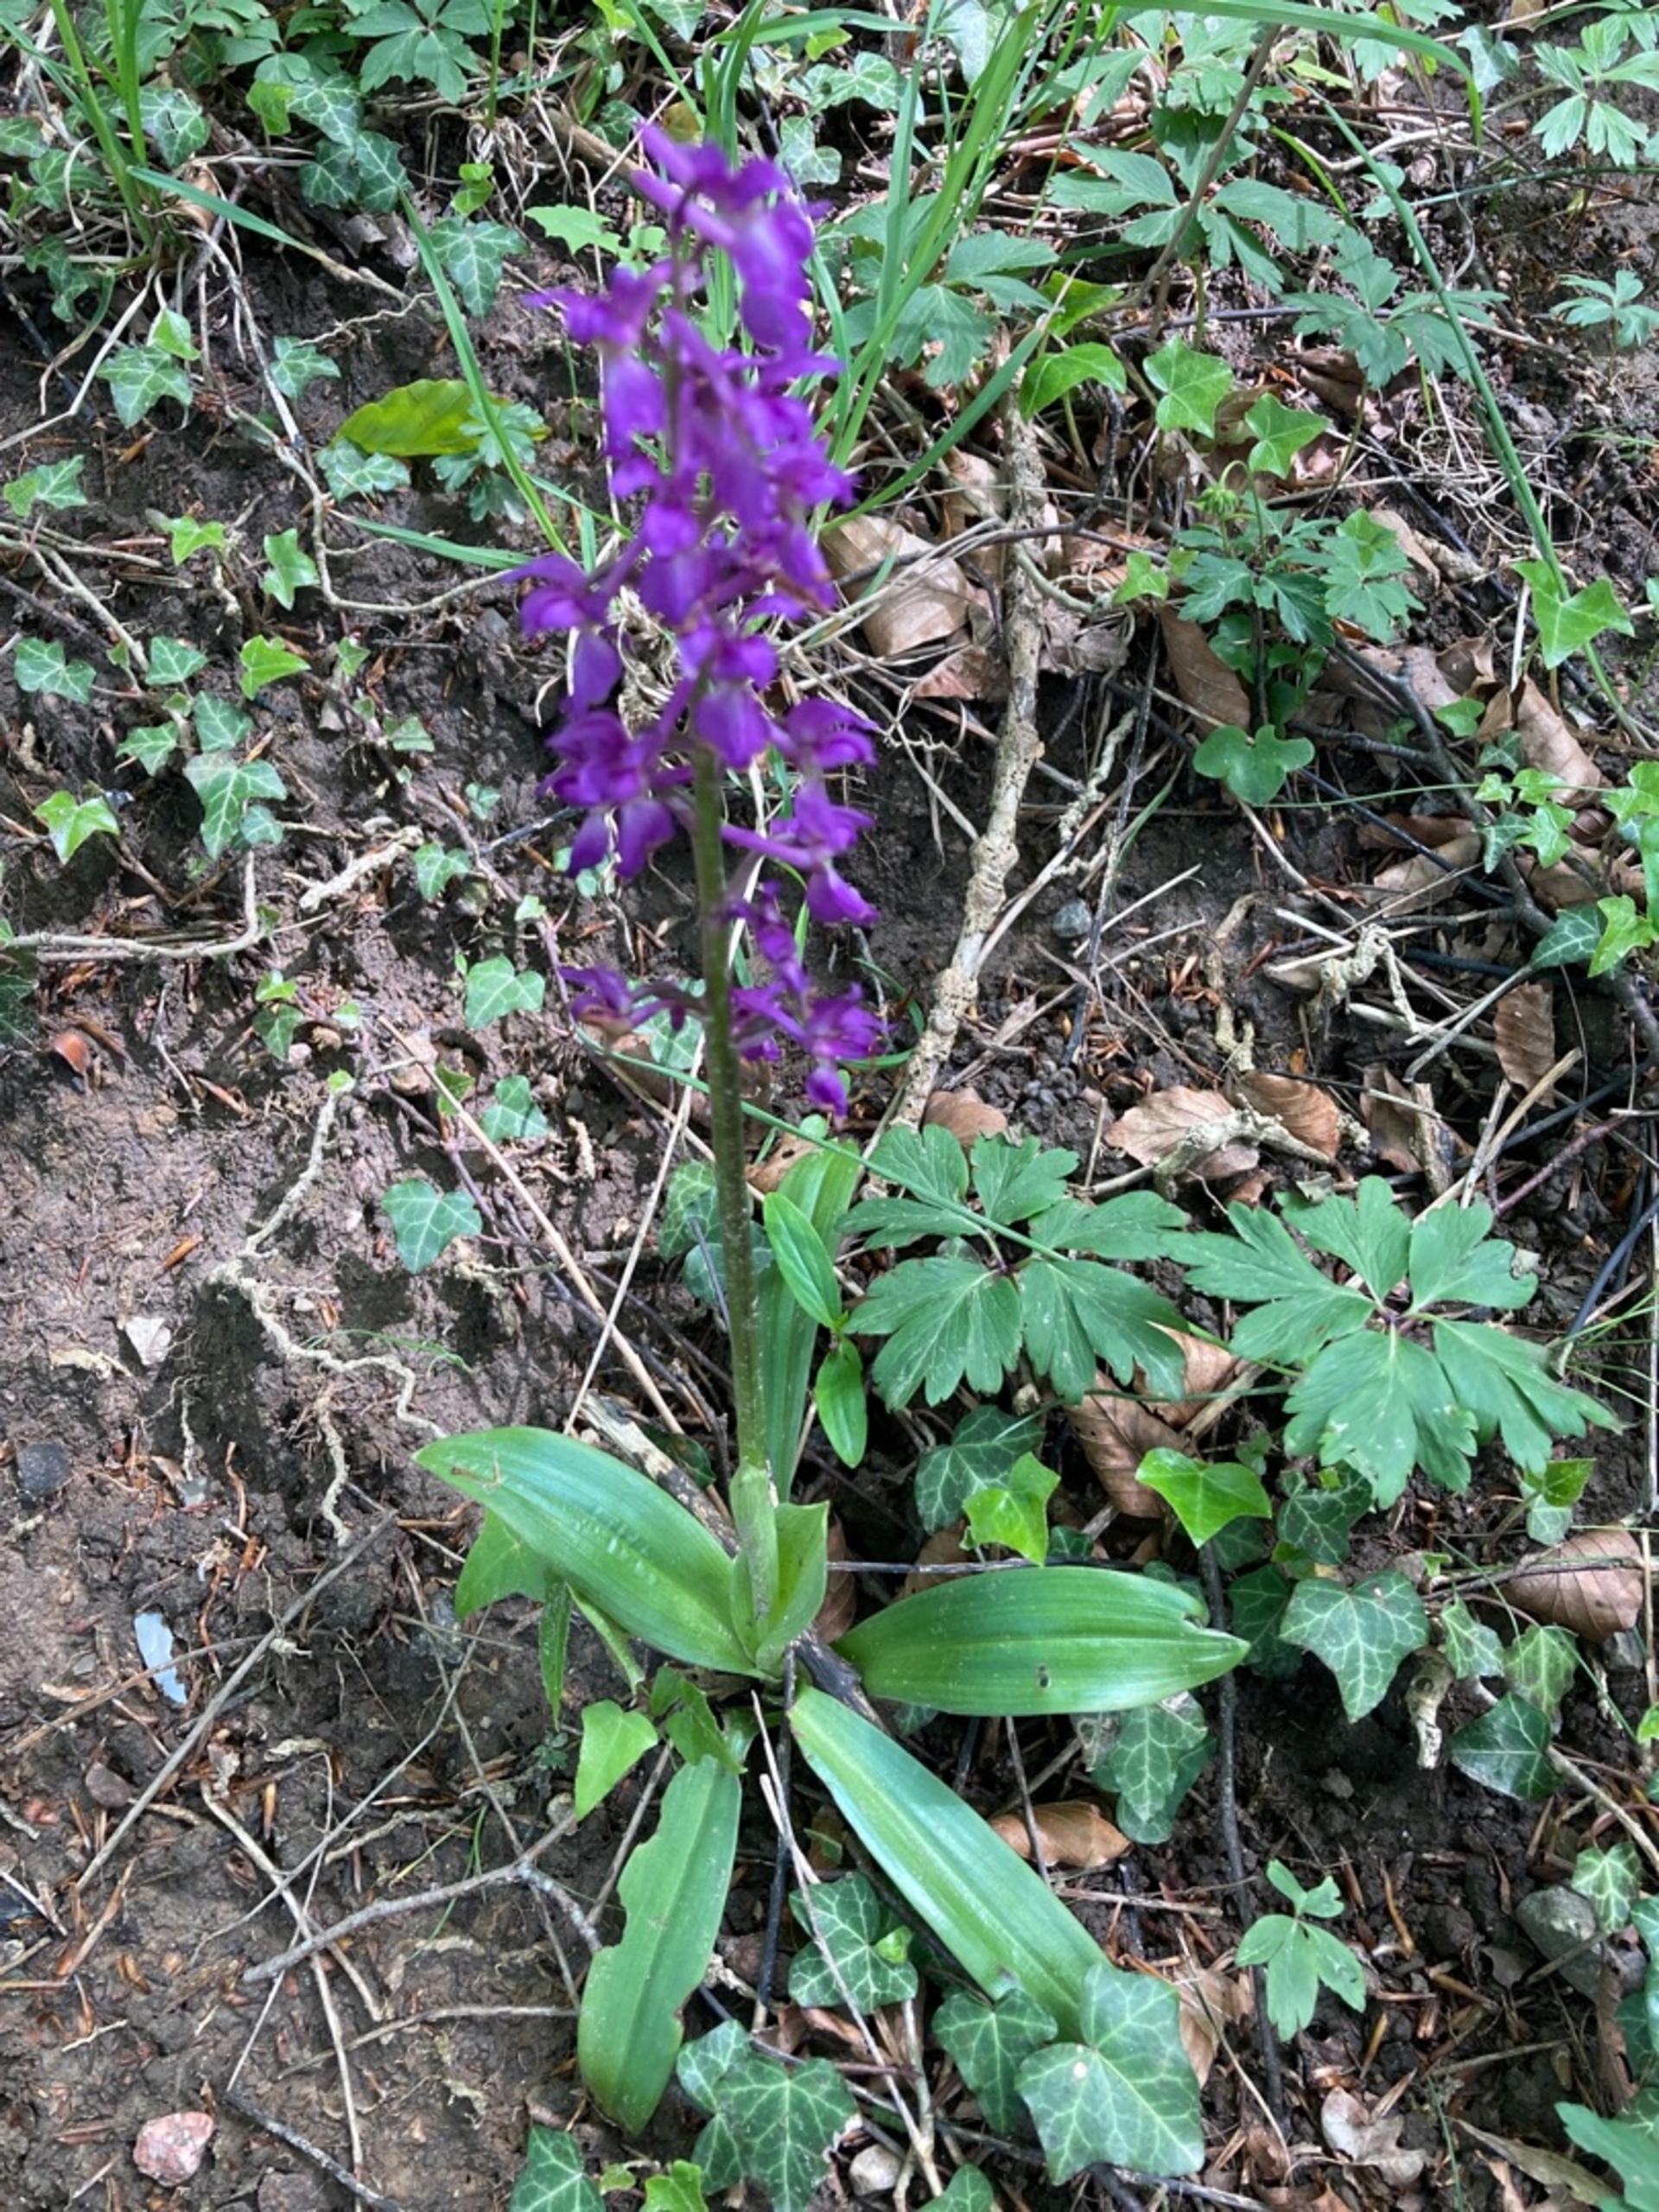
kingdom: Plantae
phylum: Tracheophyta
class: Liliopsida
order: Asparagales
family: Orchidaceae
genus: Orchis
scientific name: Orchis mascula
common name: Tyndakset gøgeurt
